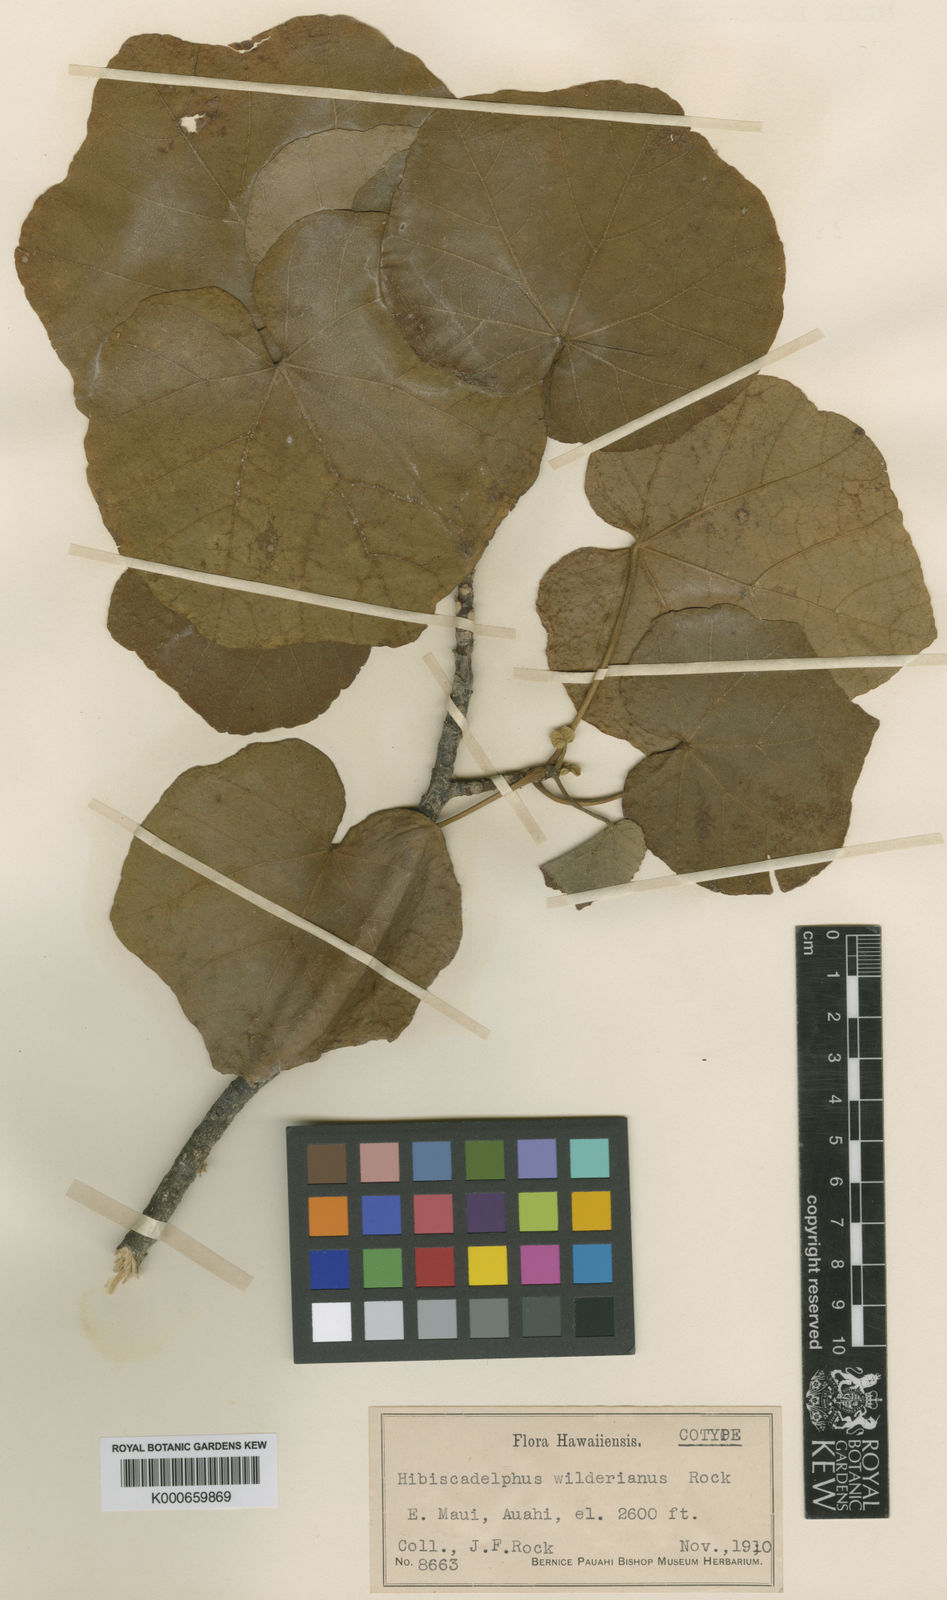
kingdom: Plantae
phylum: Tracheophyta
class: Magnoliopsida
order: Malvales
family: Malvaceae
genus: Hibiscadelphus
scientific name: Hibiscadelphus wilderianus
